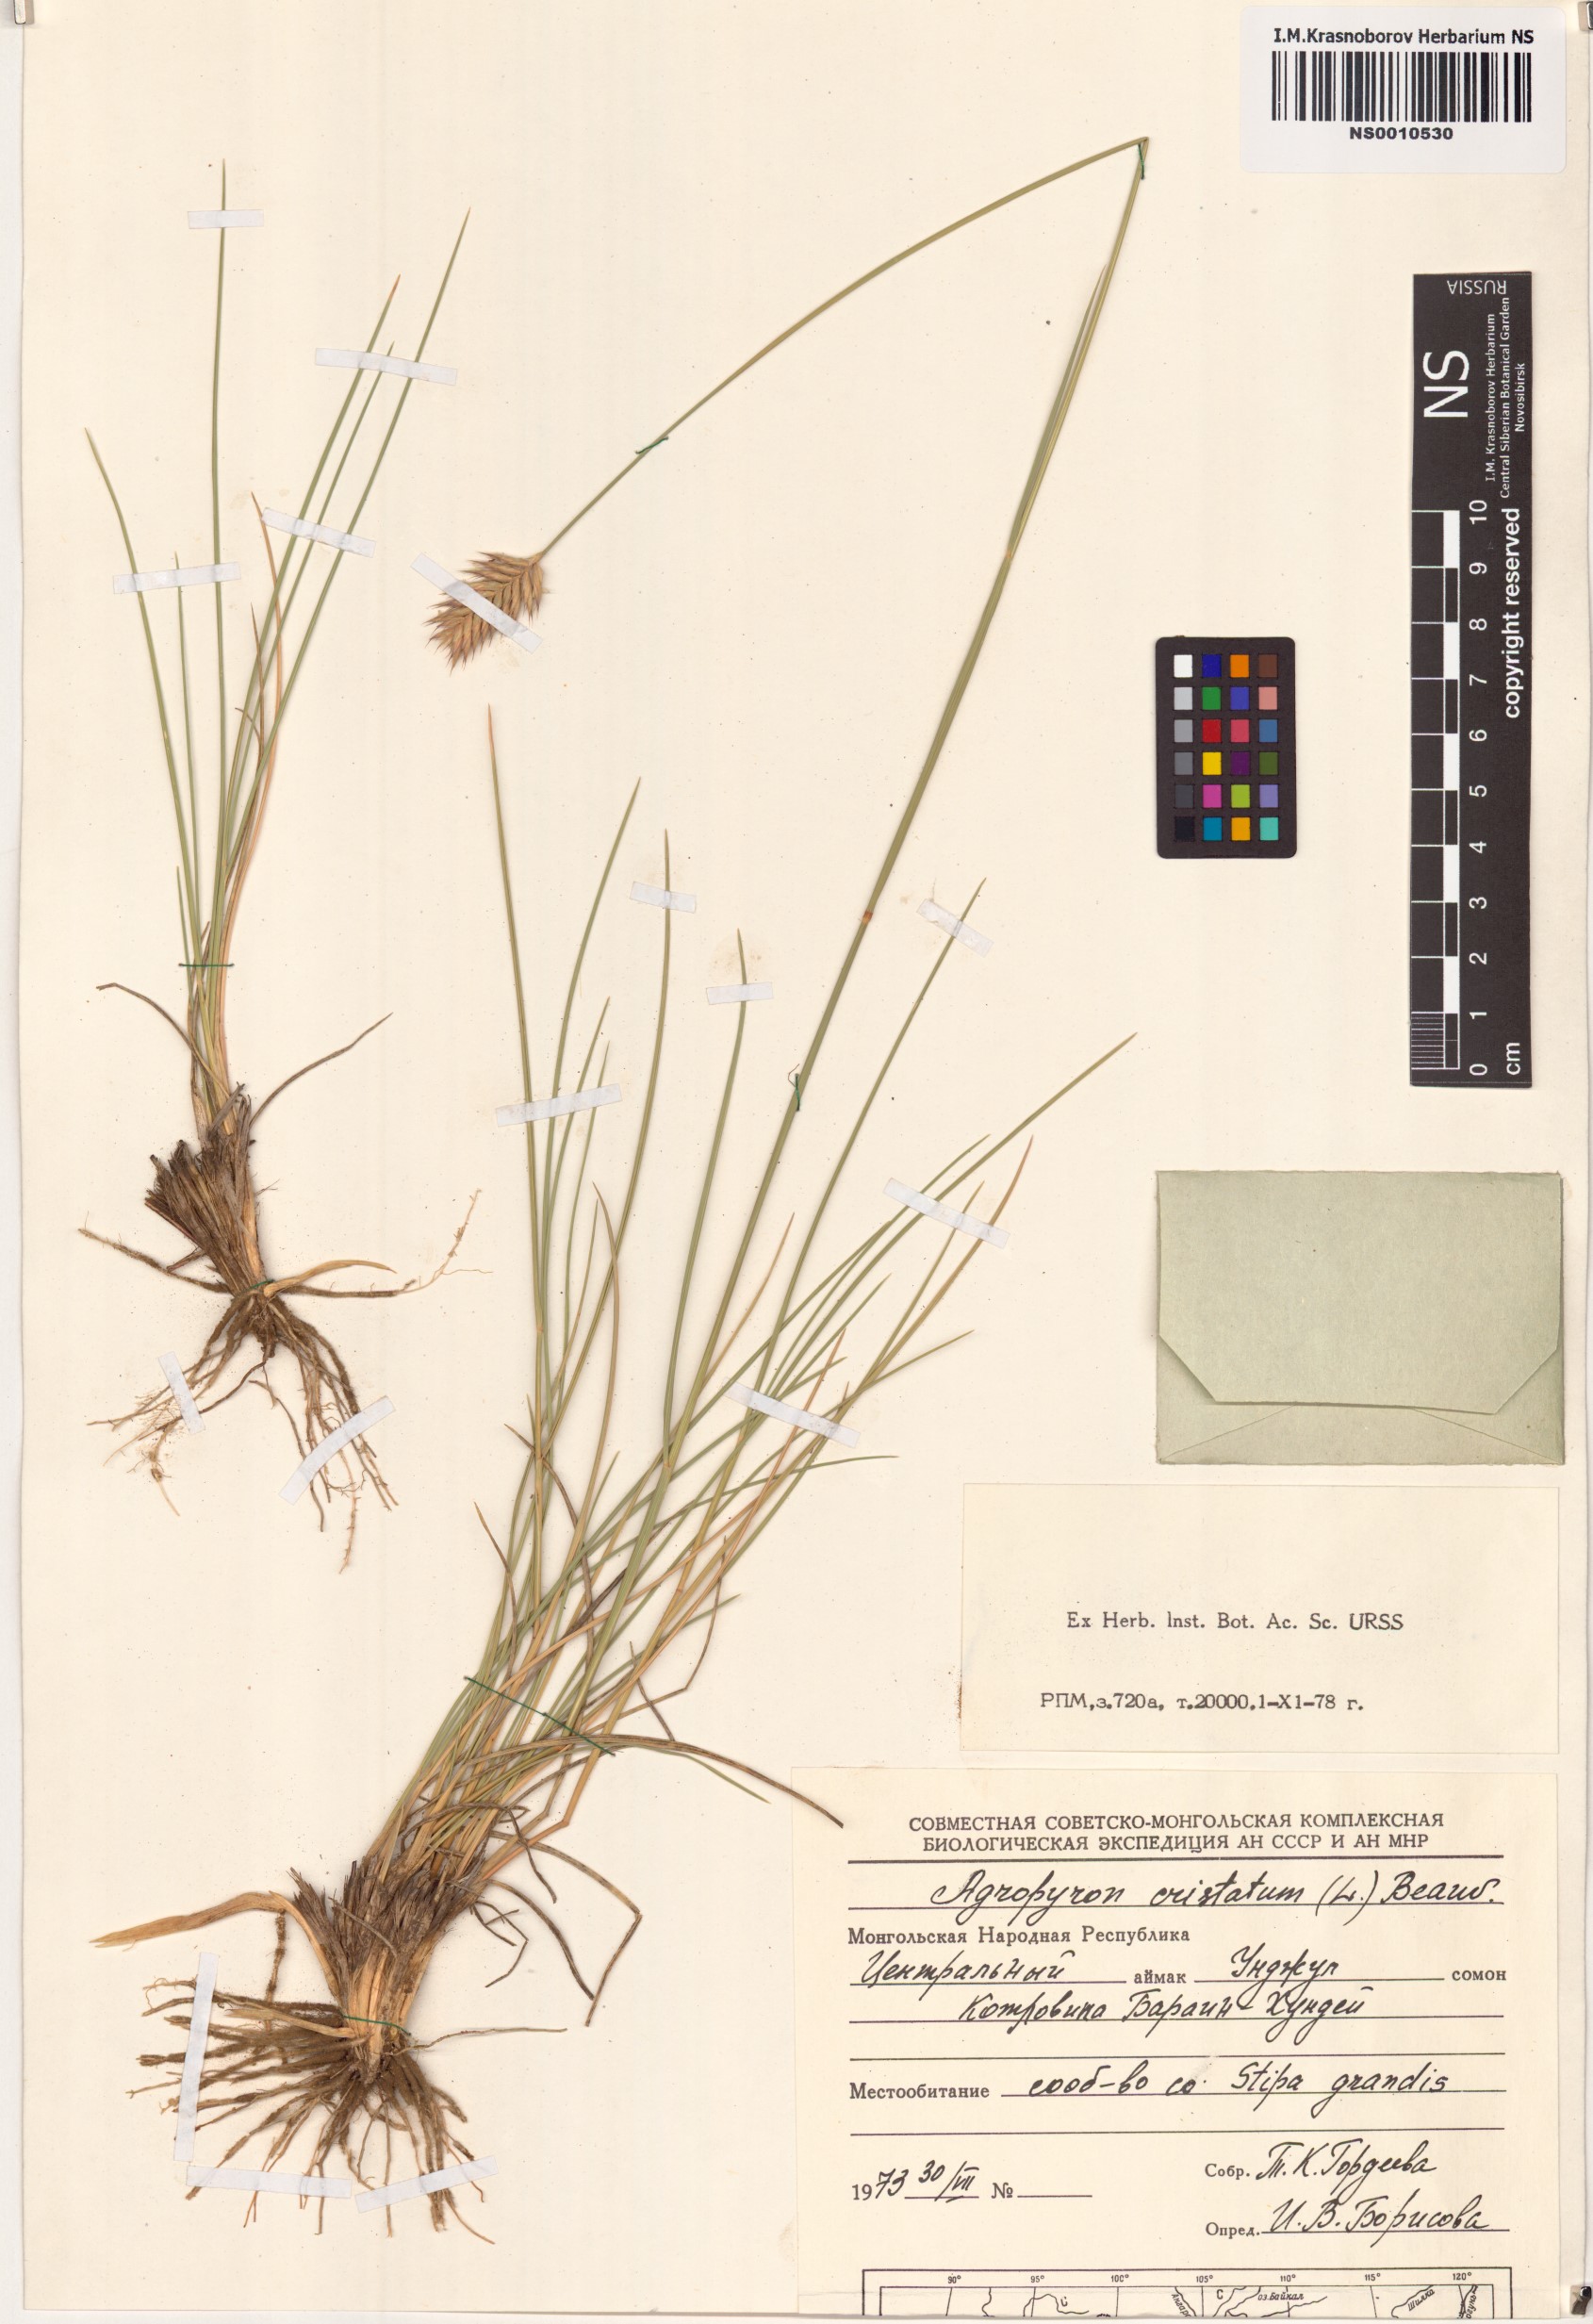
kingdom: Plantae
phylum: Tracheophyta
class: Liliopsida
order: Poales
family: Poaceae
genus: Agropyron
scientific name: Agropyron cristatum
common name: Crested wheatgrass
